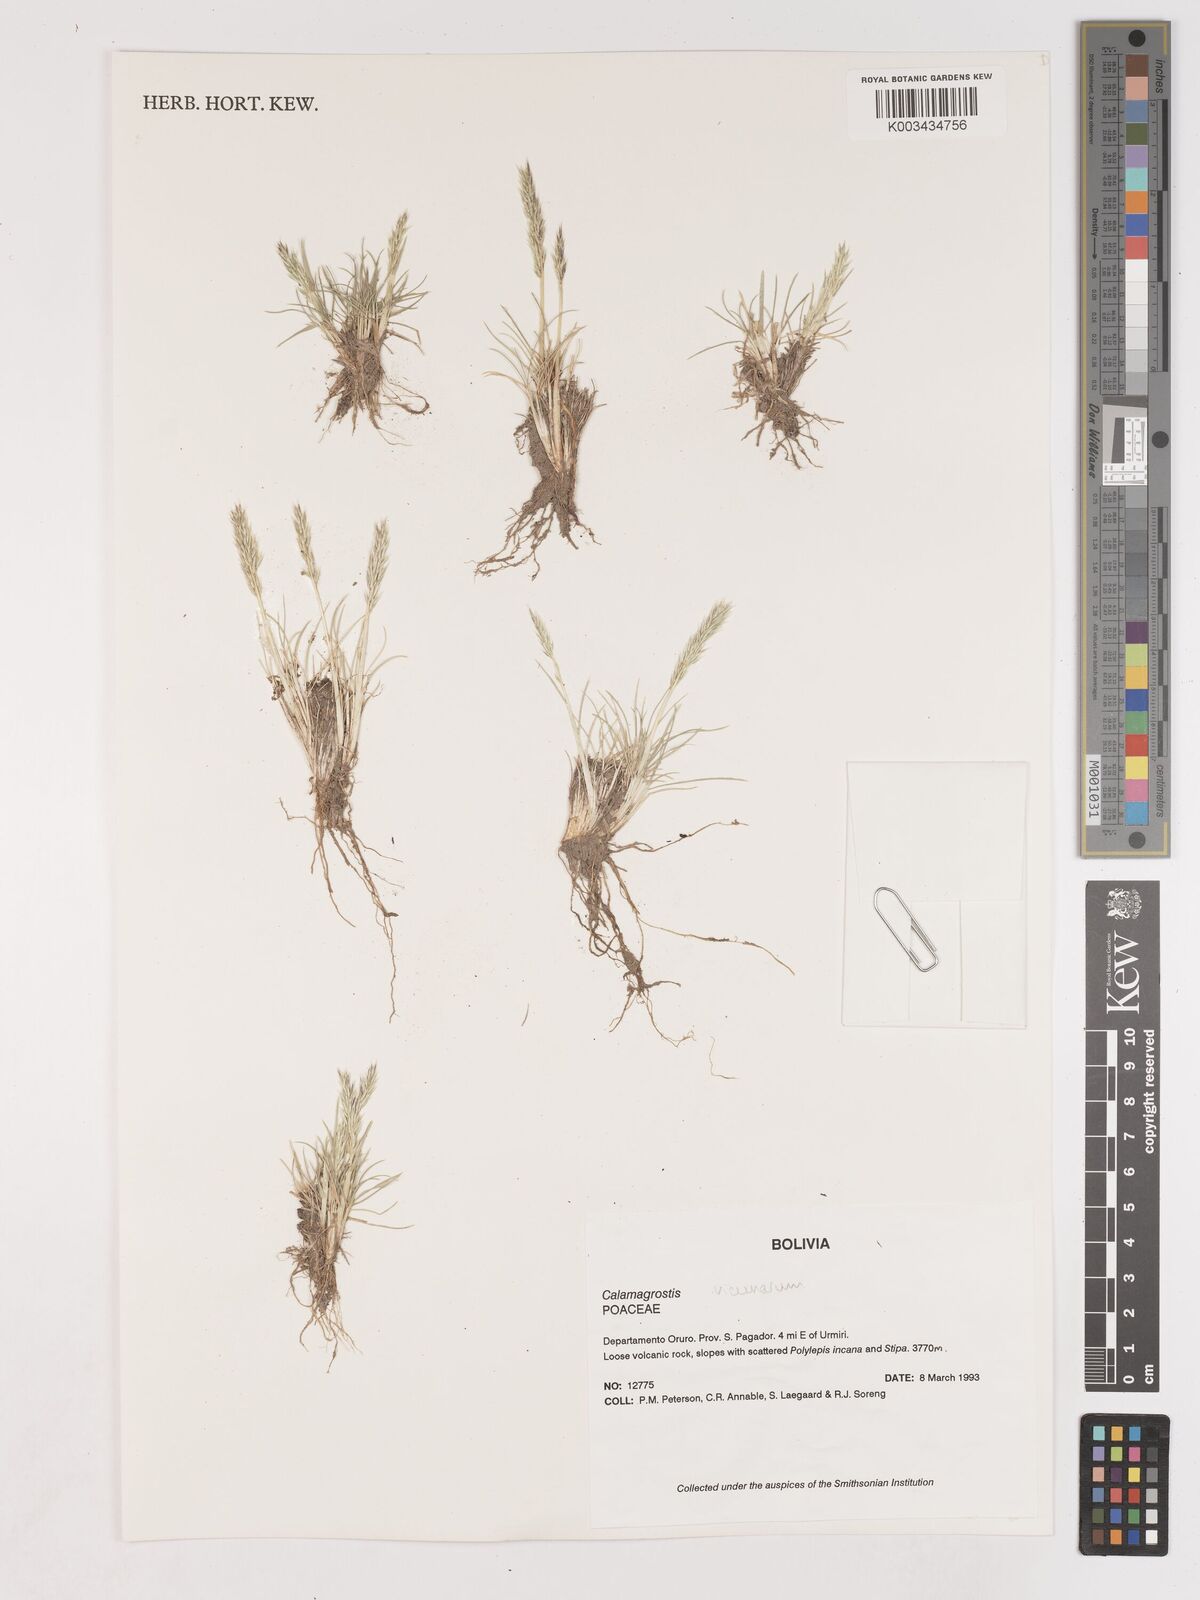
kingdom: Plantae
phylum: Tracheophyta
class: Liliopsida
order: Poales
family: Poaceae
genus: Cinnagrostis
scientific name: Cinnagrostis vicunarum
